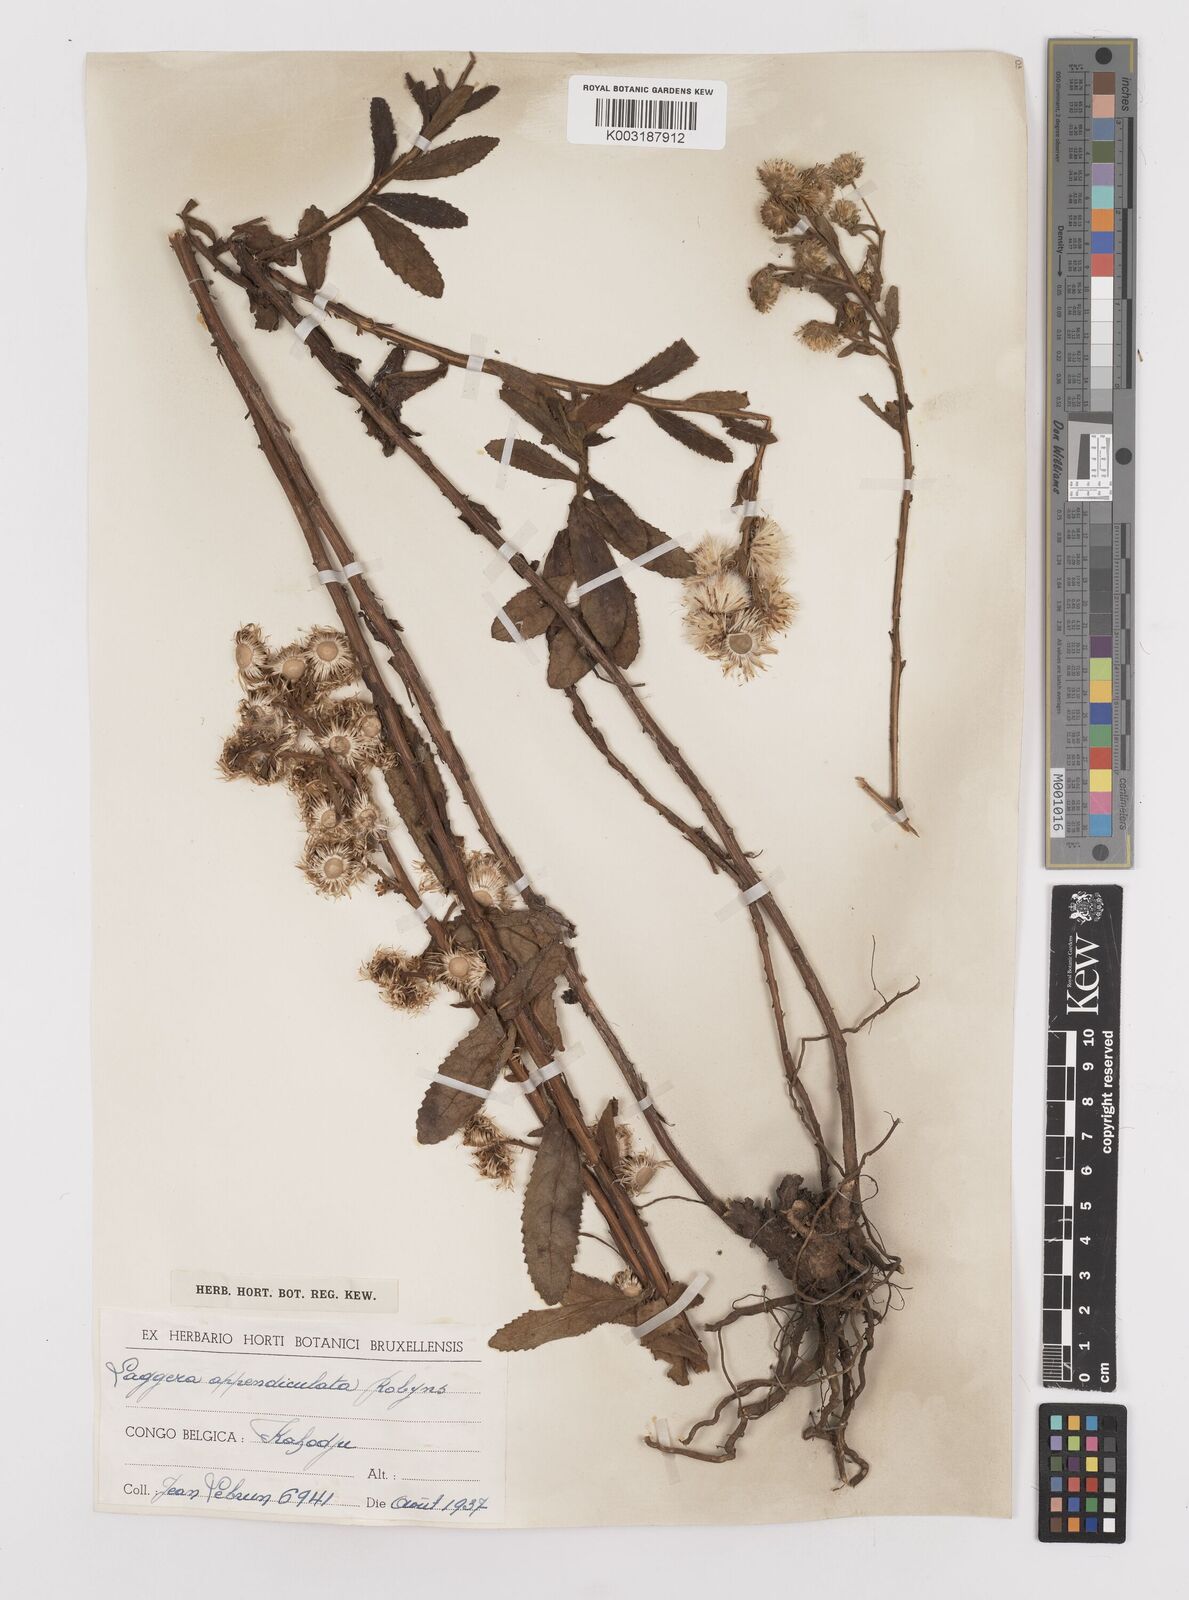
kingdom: Plantae
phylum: Tracheophyta
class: Magnoliopsida
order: Asterales
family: Asteraceae
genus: Laggera
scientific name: Laggera brevipes
